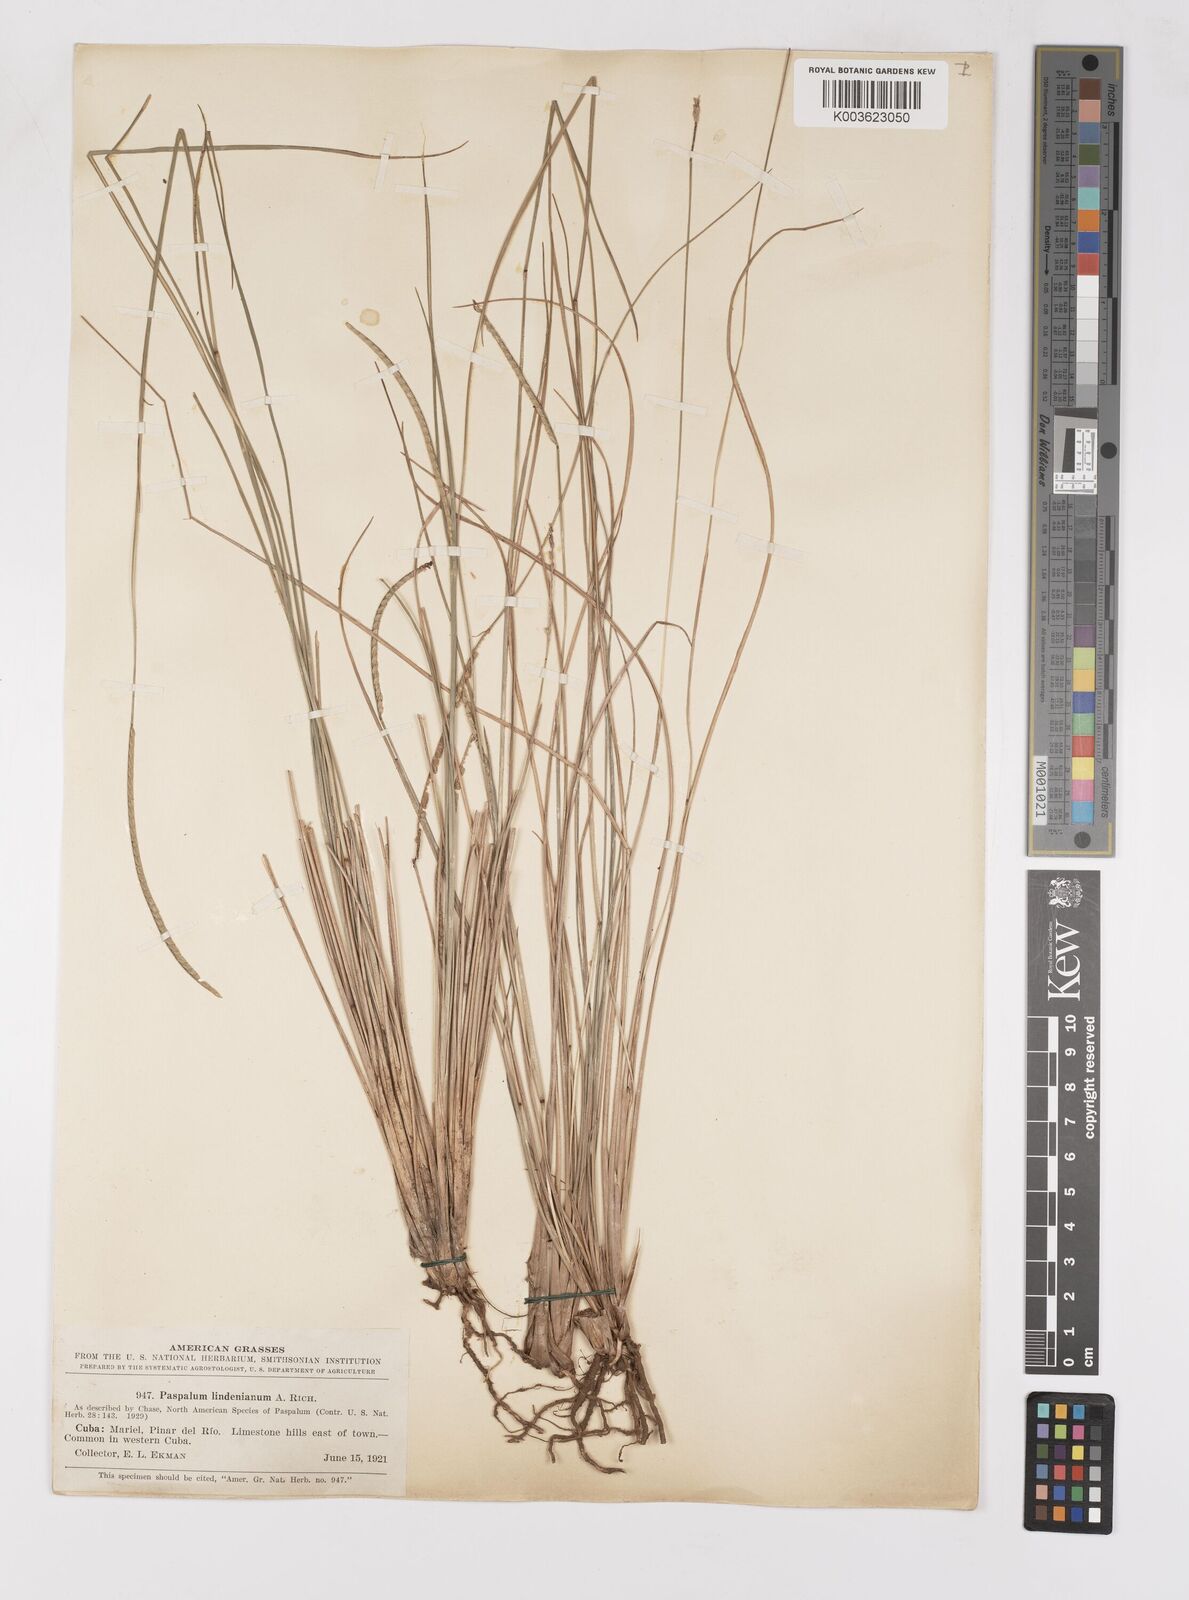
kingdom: Plantae
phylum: Tracheophyta
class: Liliopsida
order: Poales
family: Poaceae
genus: Paspalum
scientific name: Paspalum lindenianum
